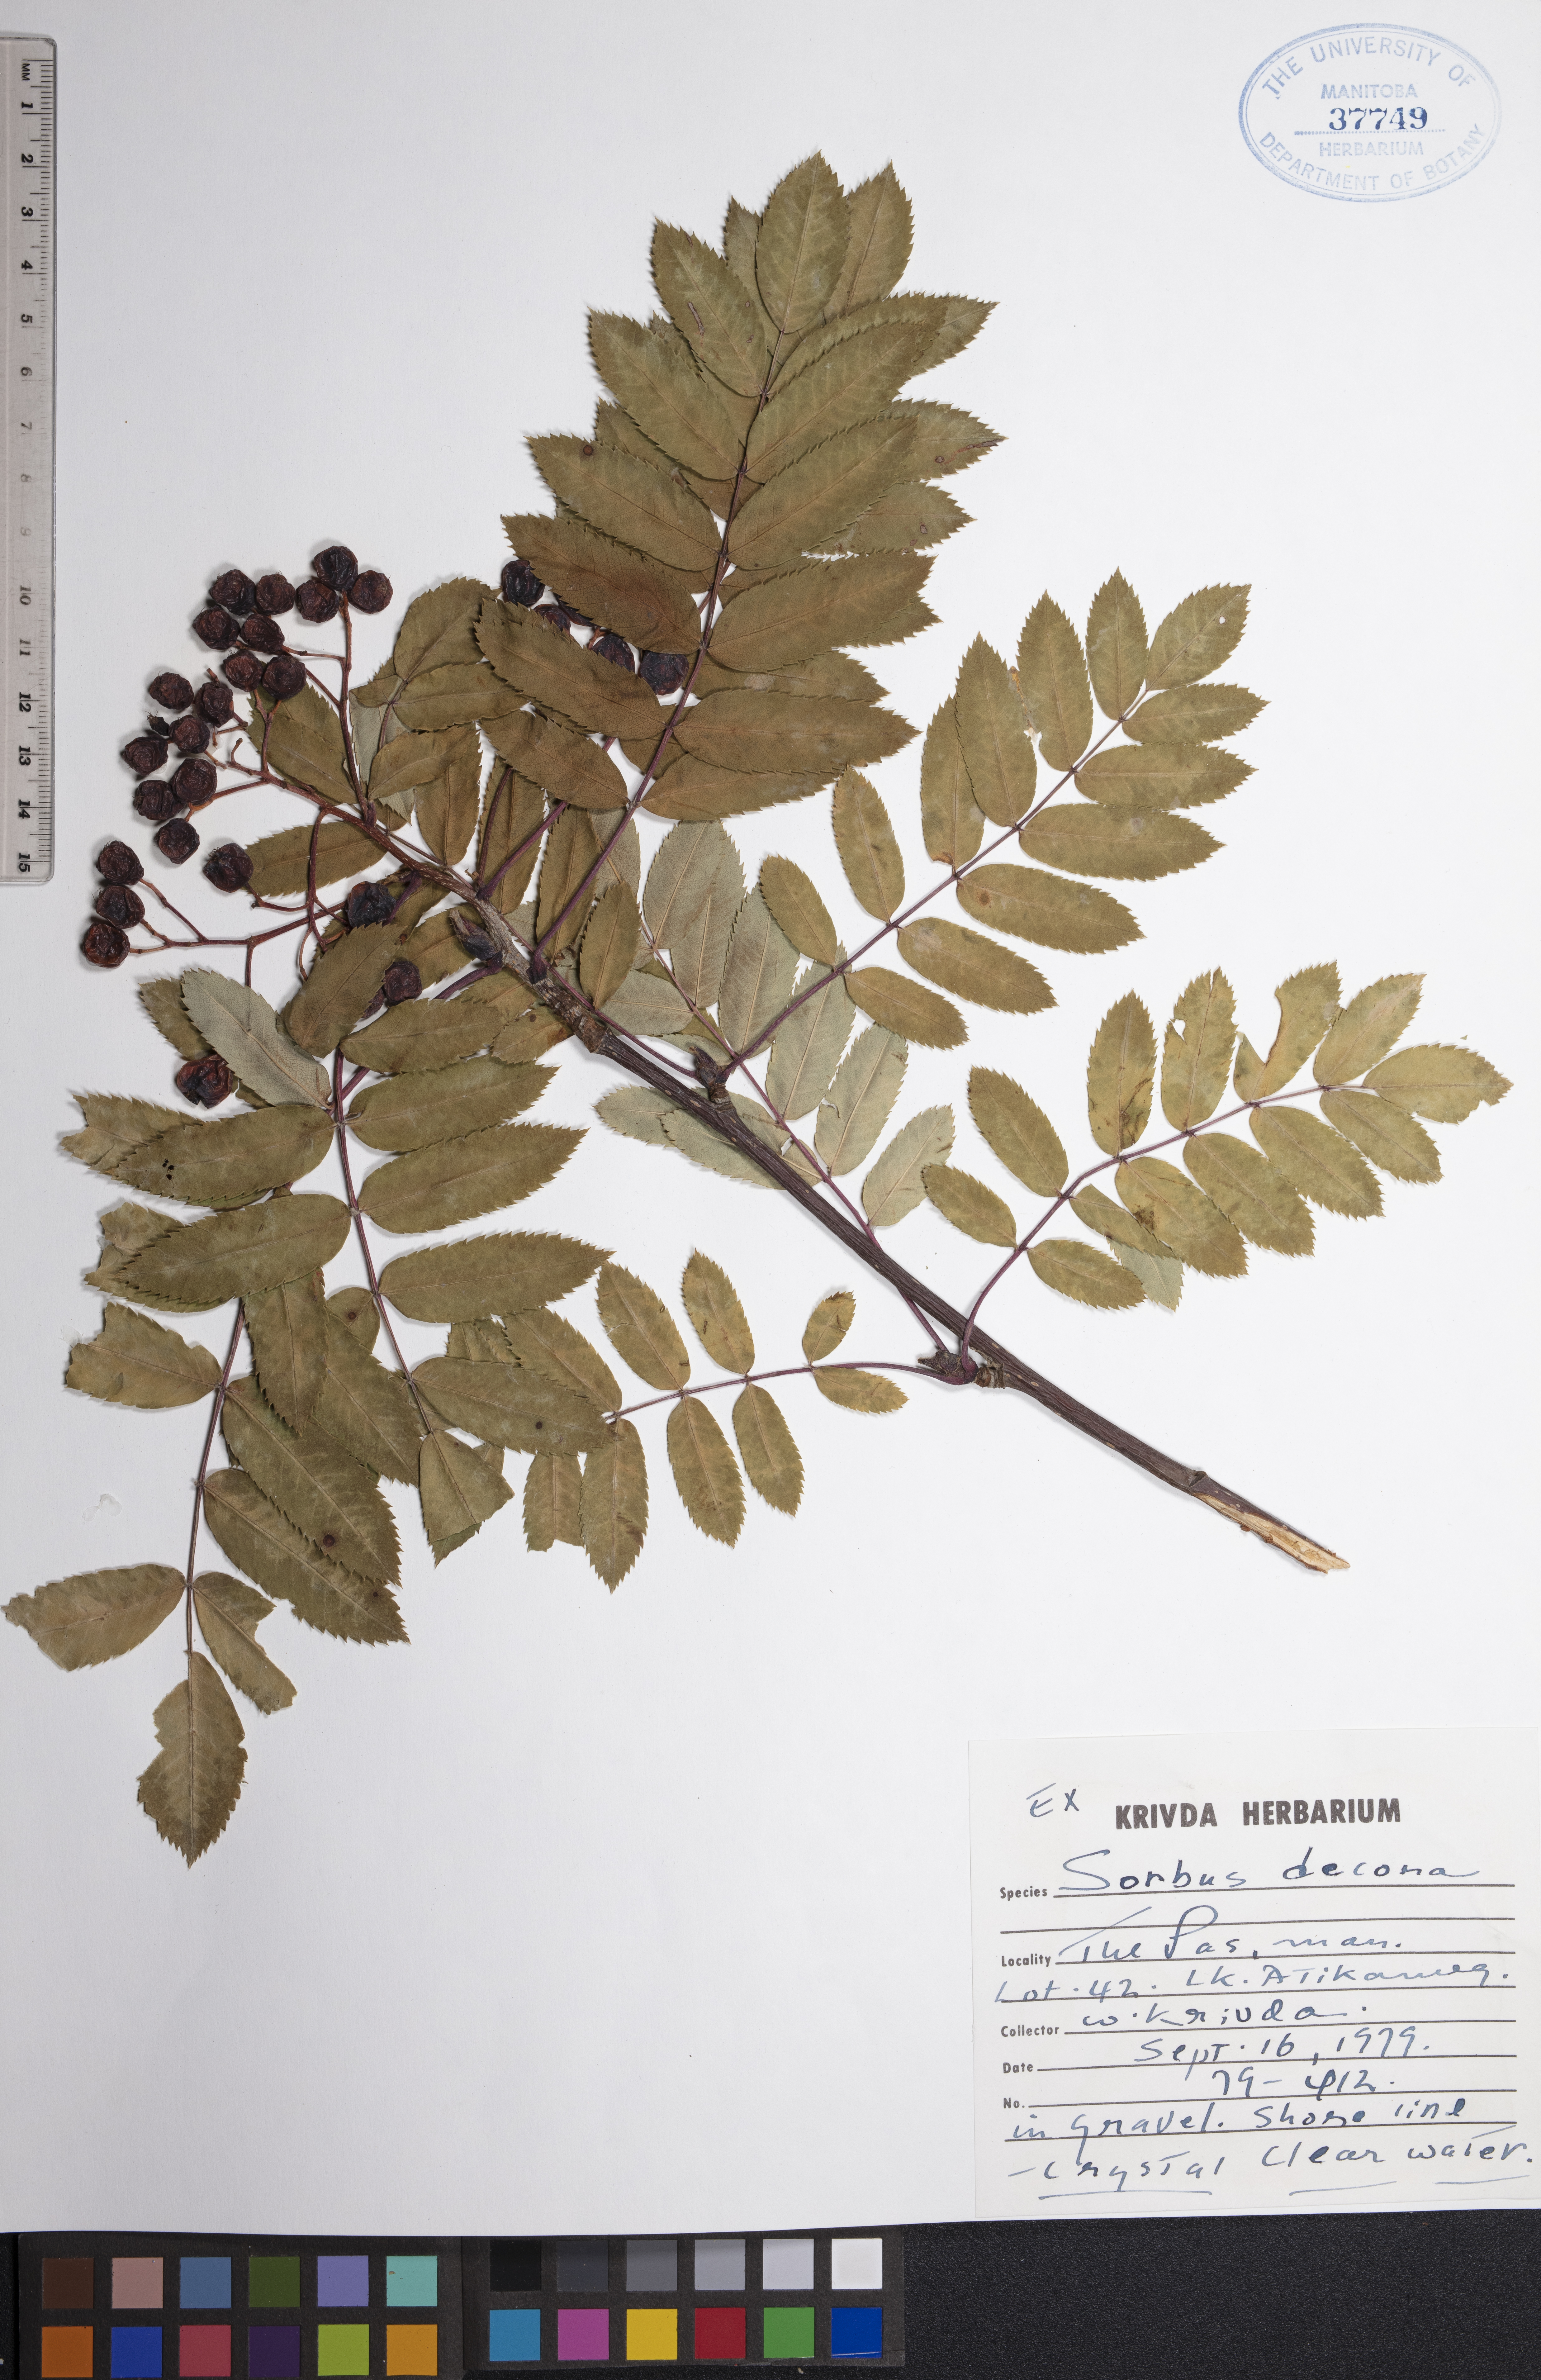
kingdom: Plantae
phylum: Tracheophyta
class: Magnoliopsida
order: Rosales
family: Rosaceae
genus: Sorbus
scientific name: Sorbus decora
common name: Northern mountain-ash
